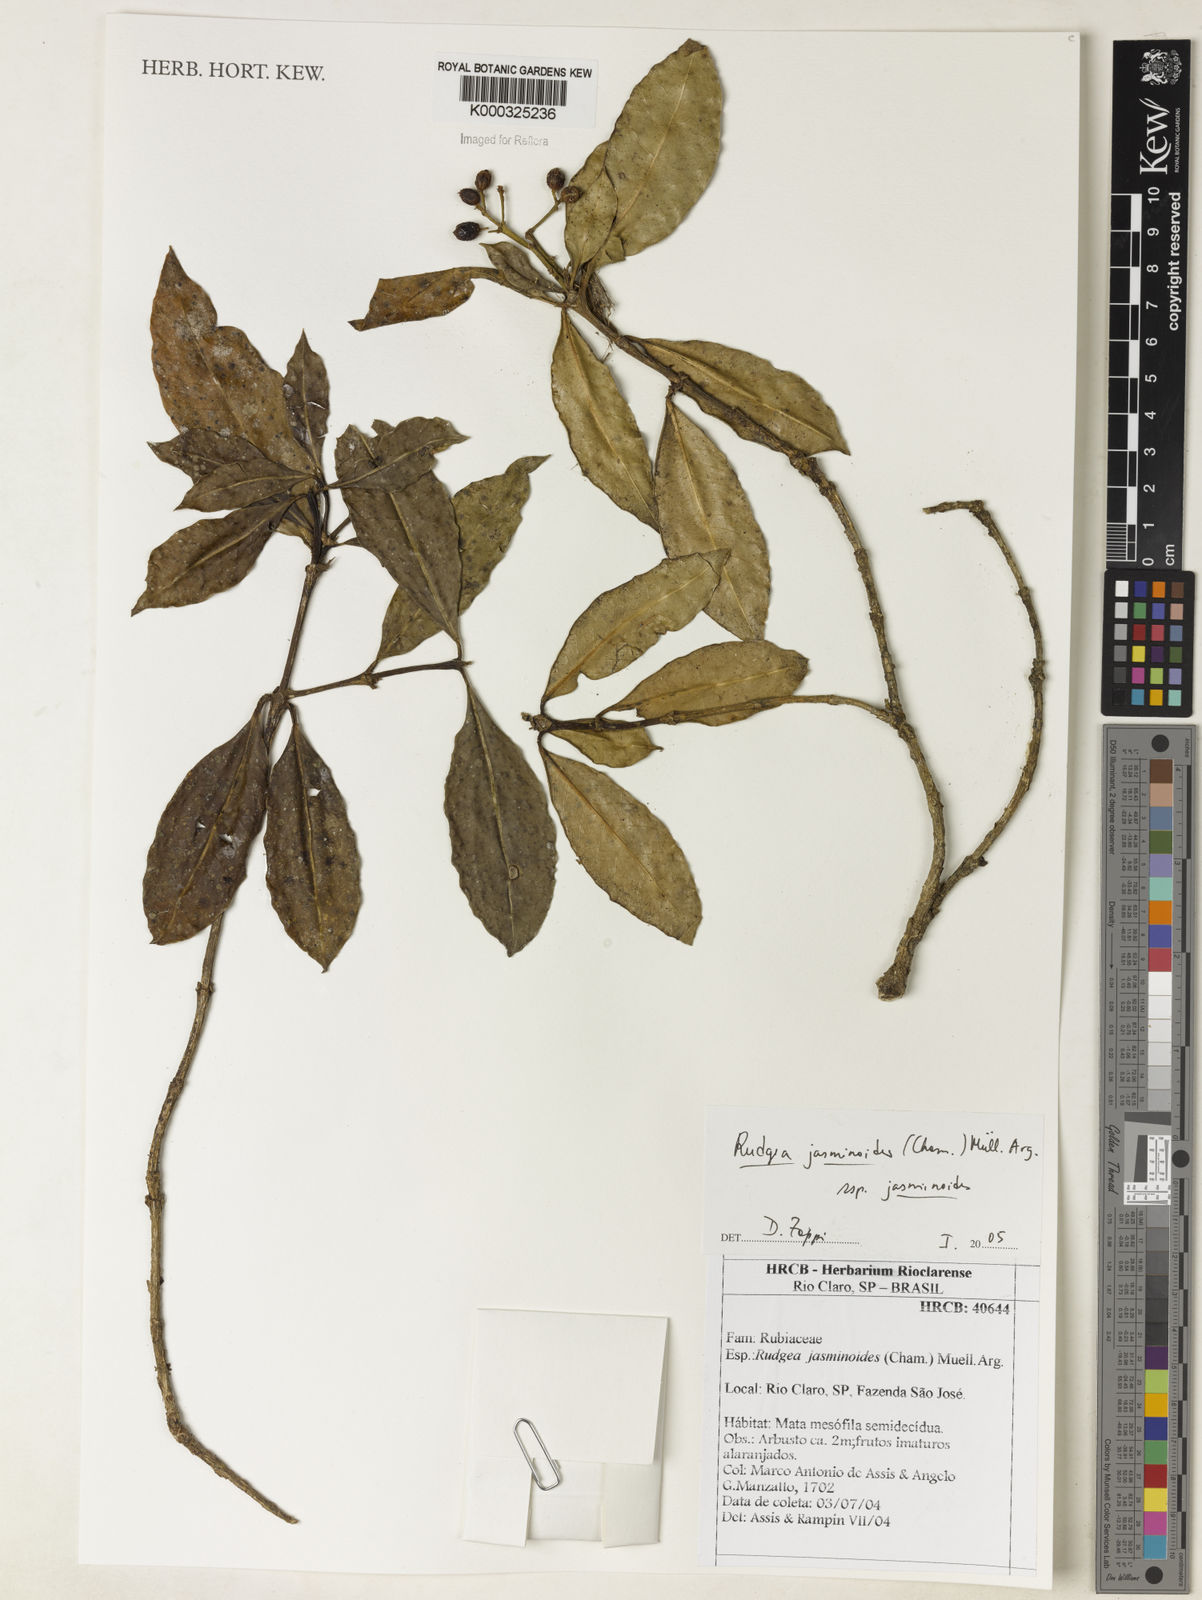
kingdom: Plantae
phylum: Tracheophyta
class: Magnoliopsida
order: Gentianales
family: Rubiaceae
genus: Rudgea
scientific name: Rudgea jasminoides
